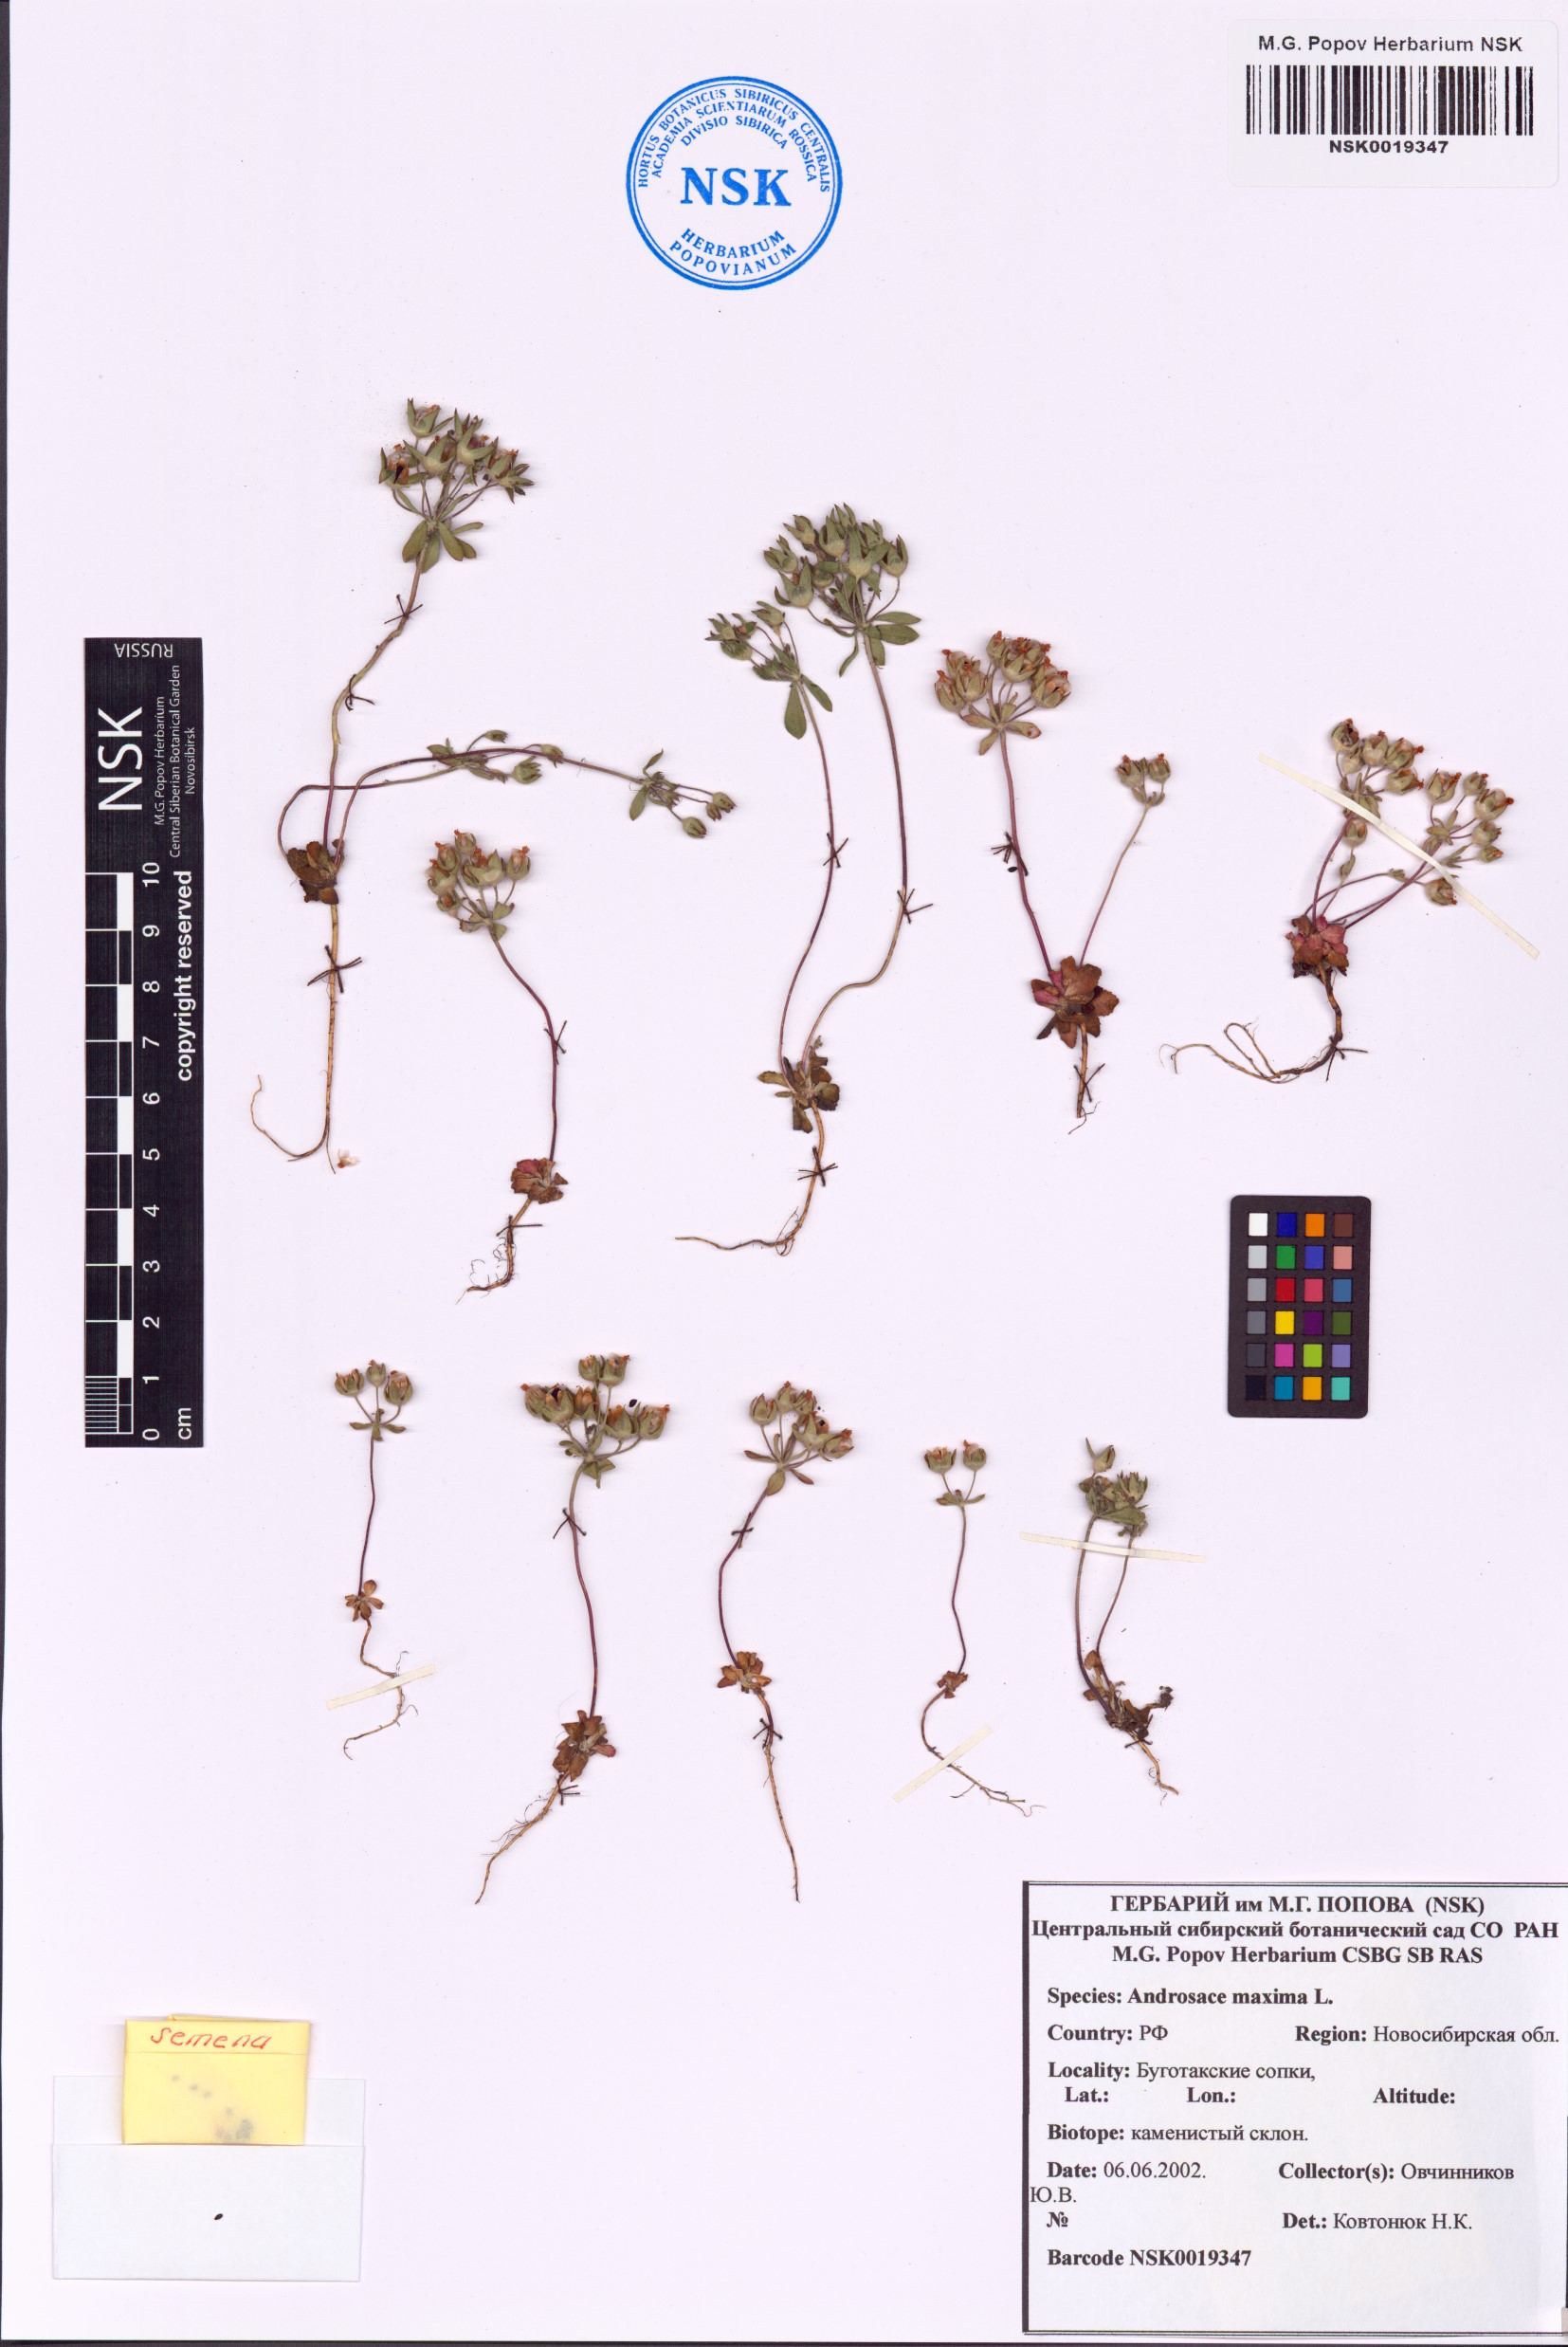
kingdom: Plantae
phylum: Tracheophyta
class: Magnoliopsida
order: Ericales
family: Primulaceae
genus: Androsace
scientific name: Androsace maxima
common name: Annual androsace
